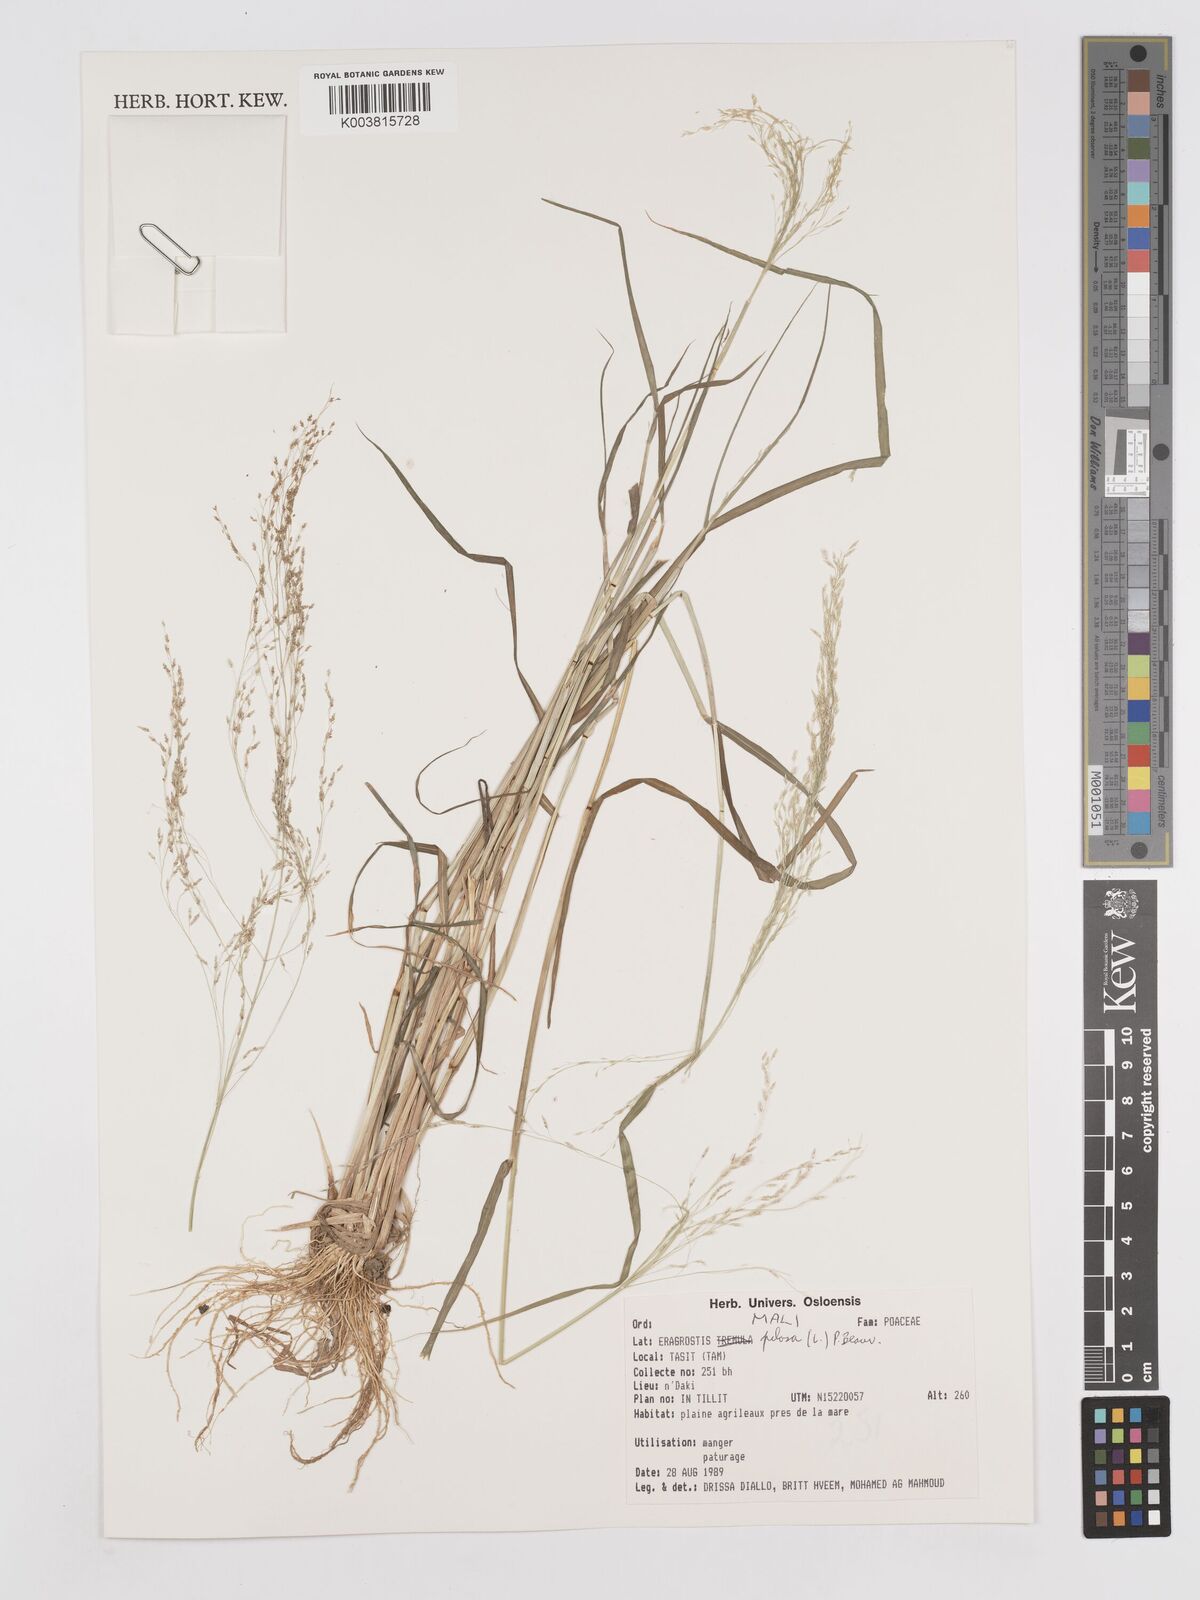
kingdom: Plantae
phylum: Tracheophyta
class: Liliopsida
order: Poales
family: Poaceae
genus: Eragrostis
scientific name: Eragrostis pilosa
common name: Indian lovegrass
